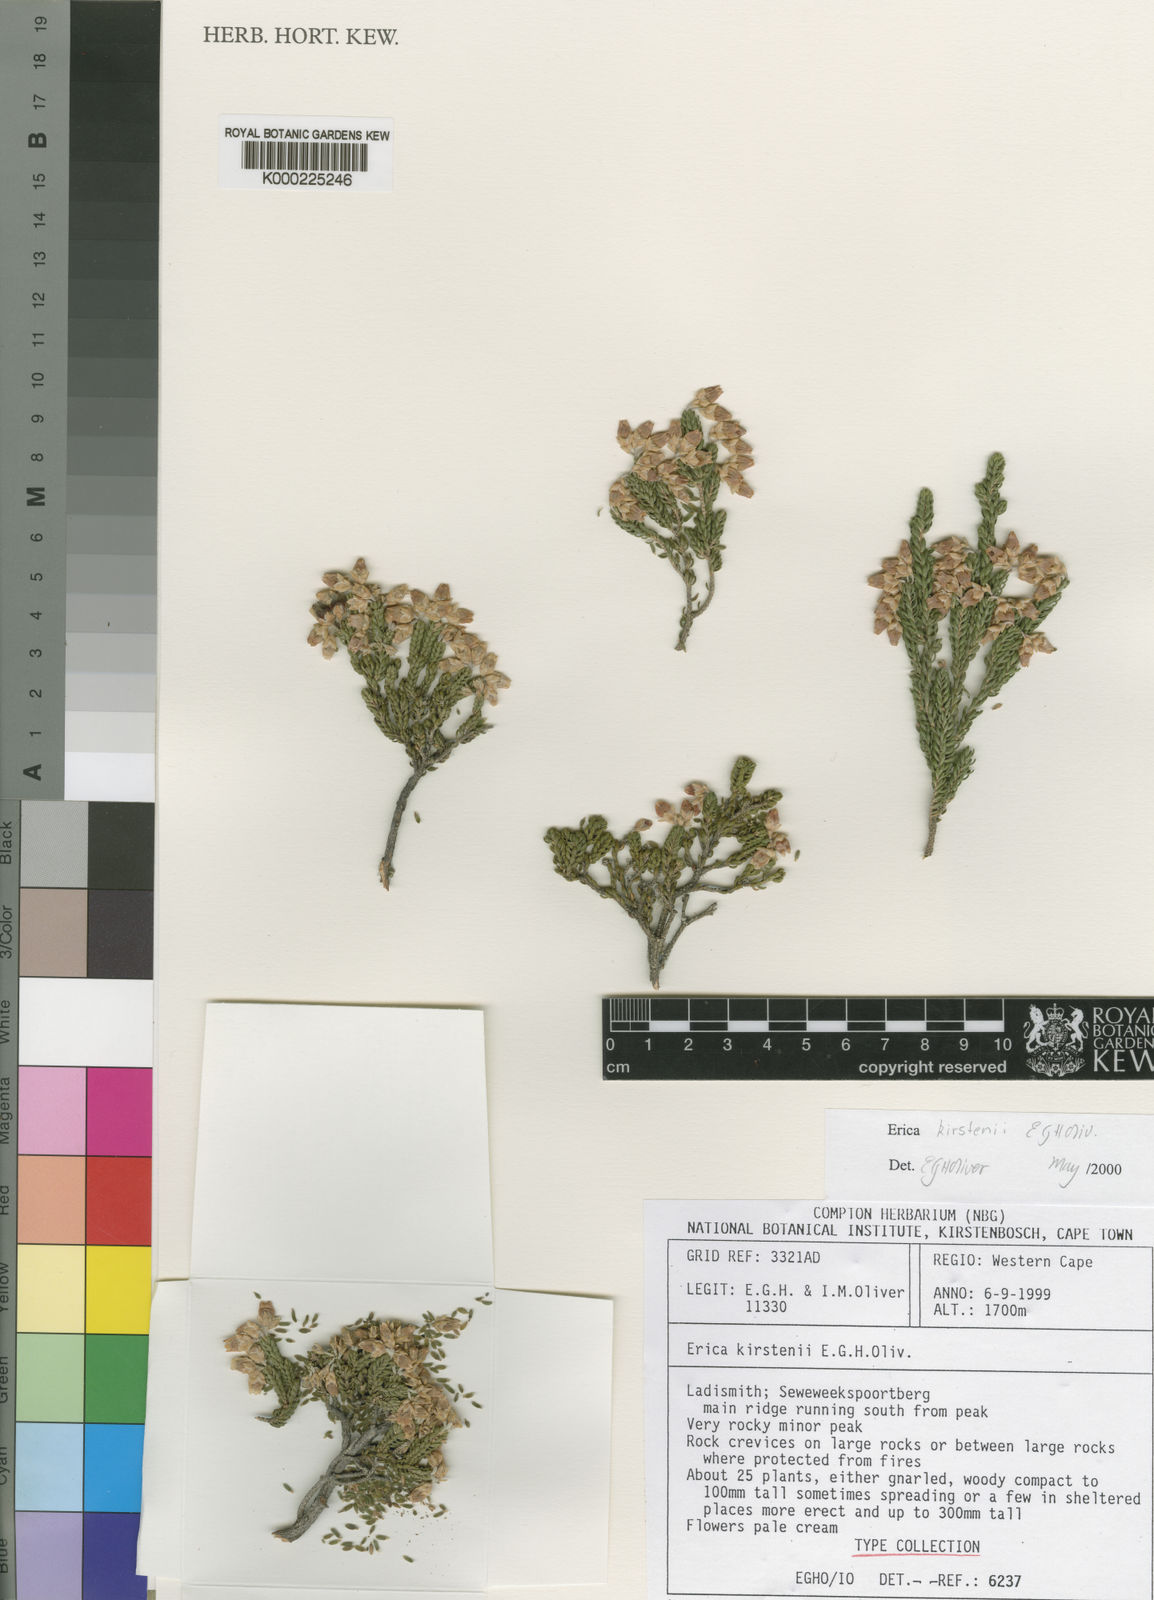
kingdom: Plantae
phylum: Tracheophyta
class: Magnoliopsida
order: Ericales
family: Ericaceae
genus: Erica
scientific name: Erica kirstenii
